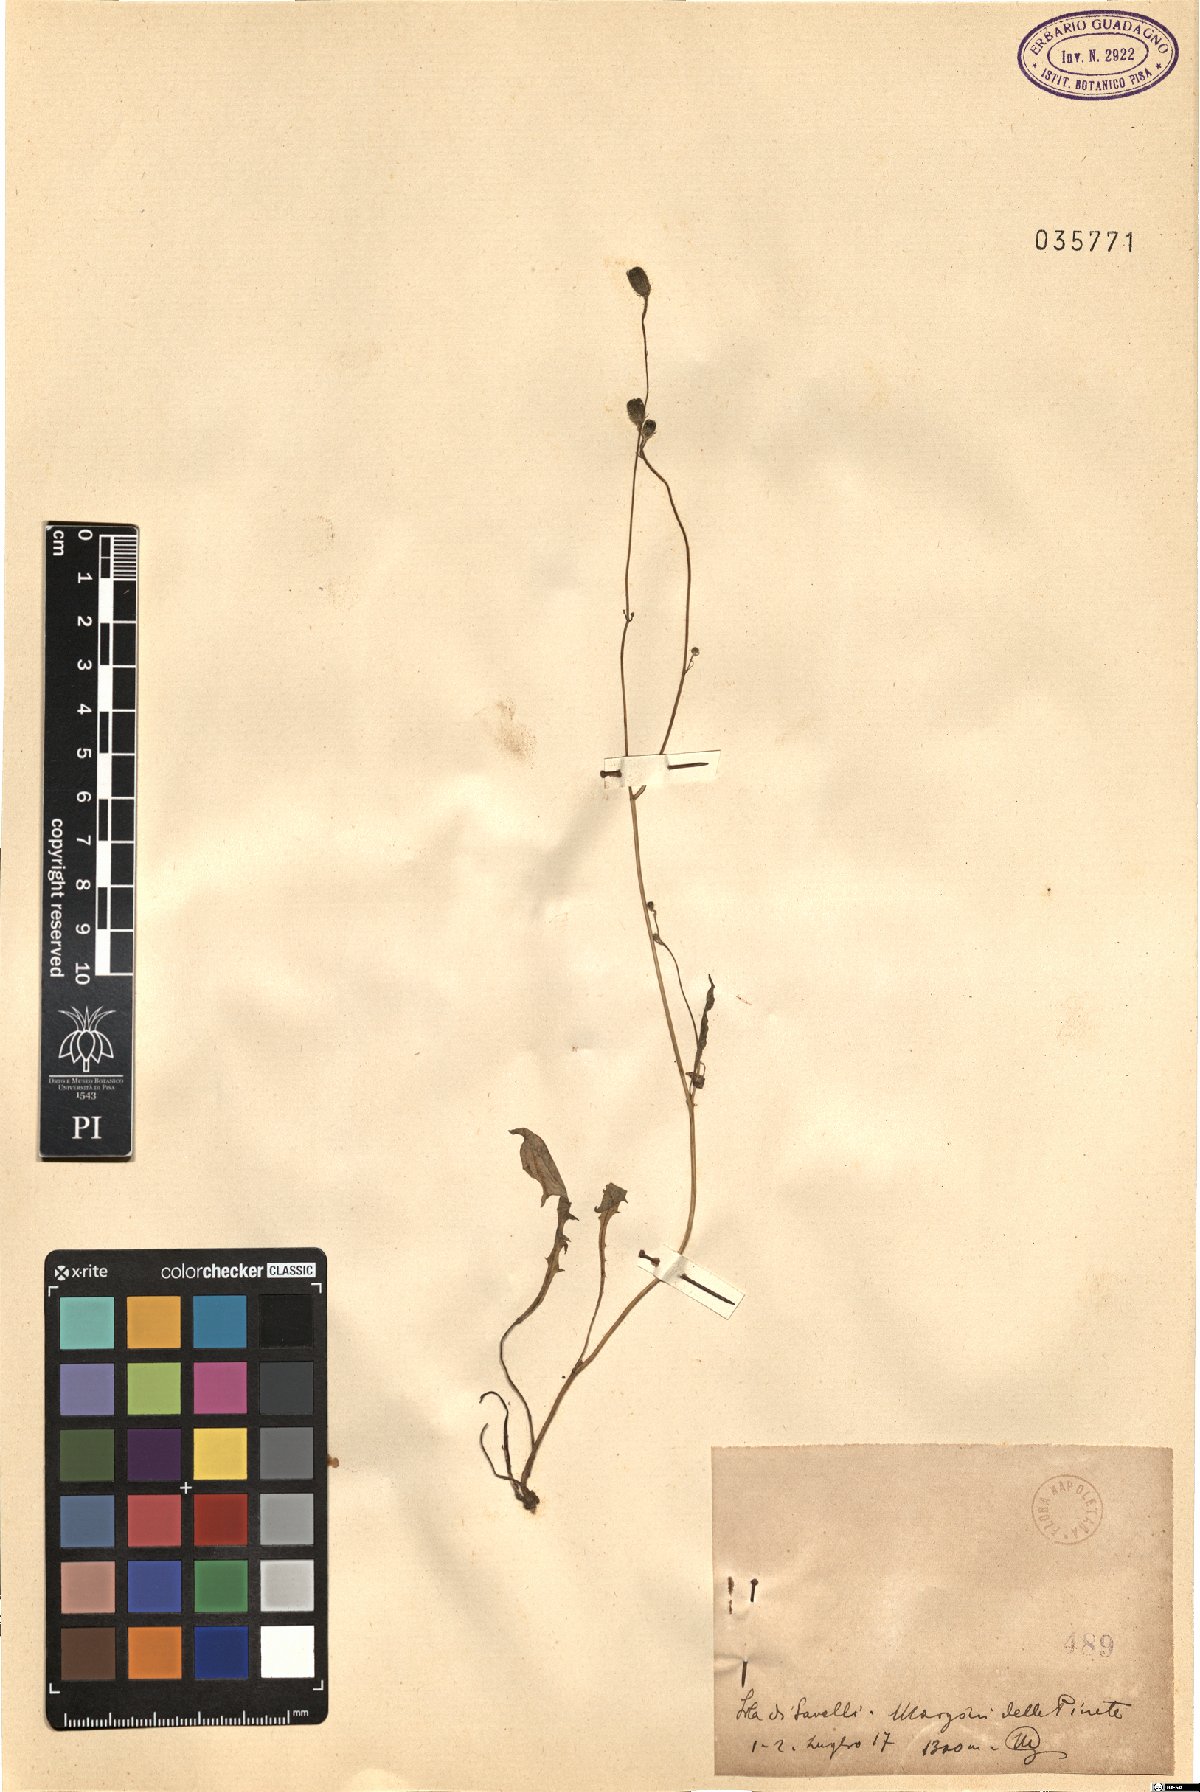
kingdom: Plantae
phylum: Tracheophyta
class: Magnoliopsida
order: Asterales
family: Asteraceae
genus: Crepis
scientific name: Crepis
